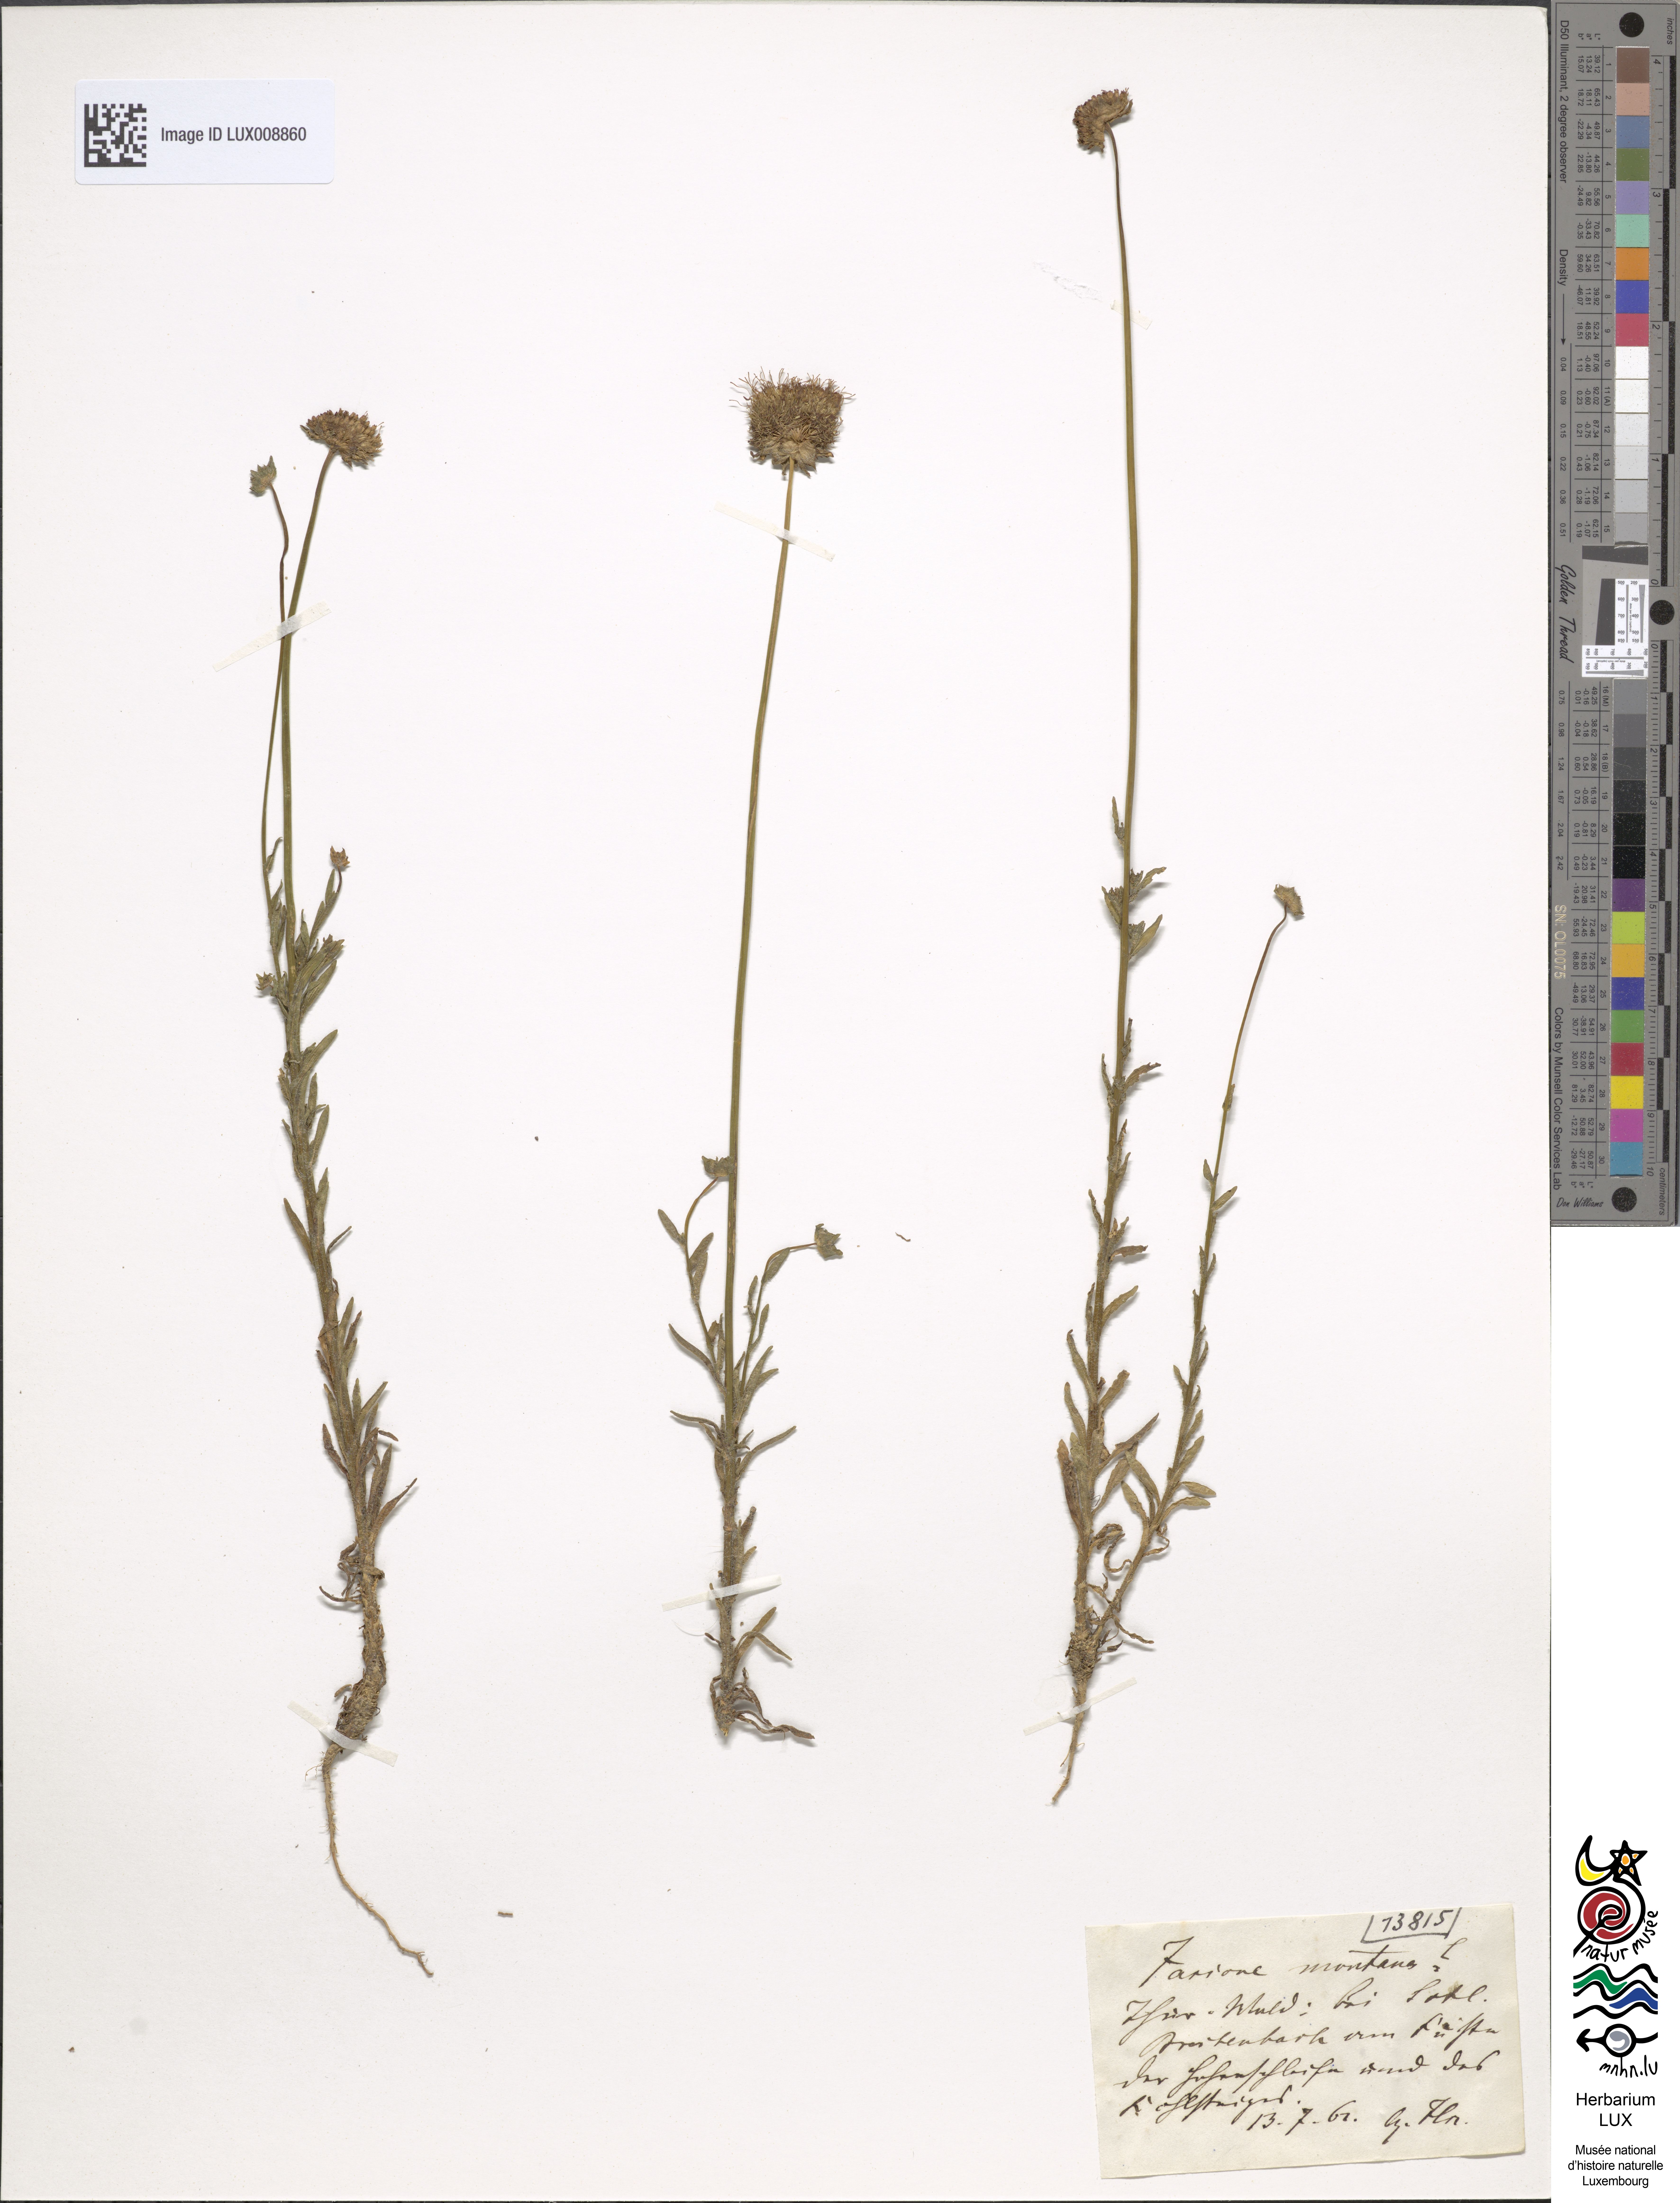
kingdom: Plantae
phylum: Tracheophyta
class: Magnoliopsida
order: Asterales
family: Campanulaceae
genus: Jasione
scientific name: Jasione montana
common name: Sheep's-bit
